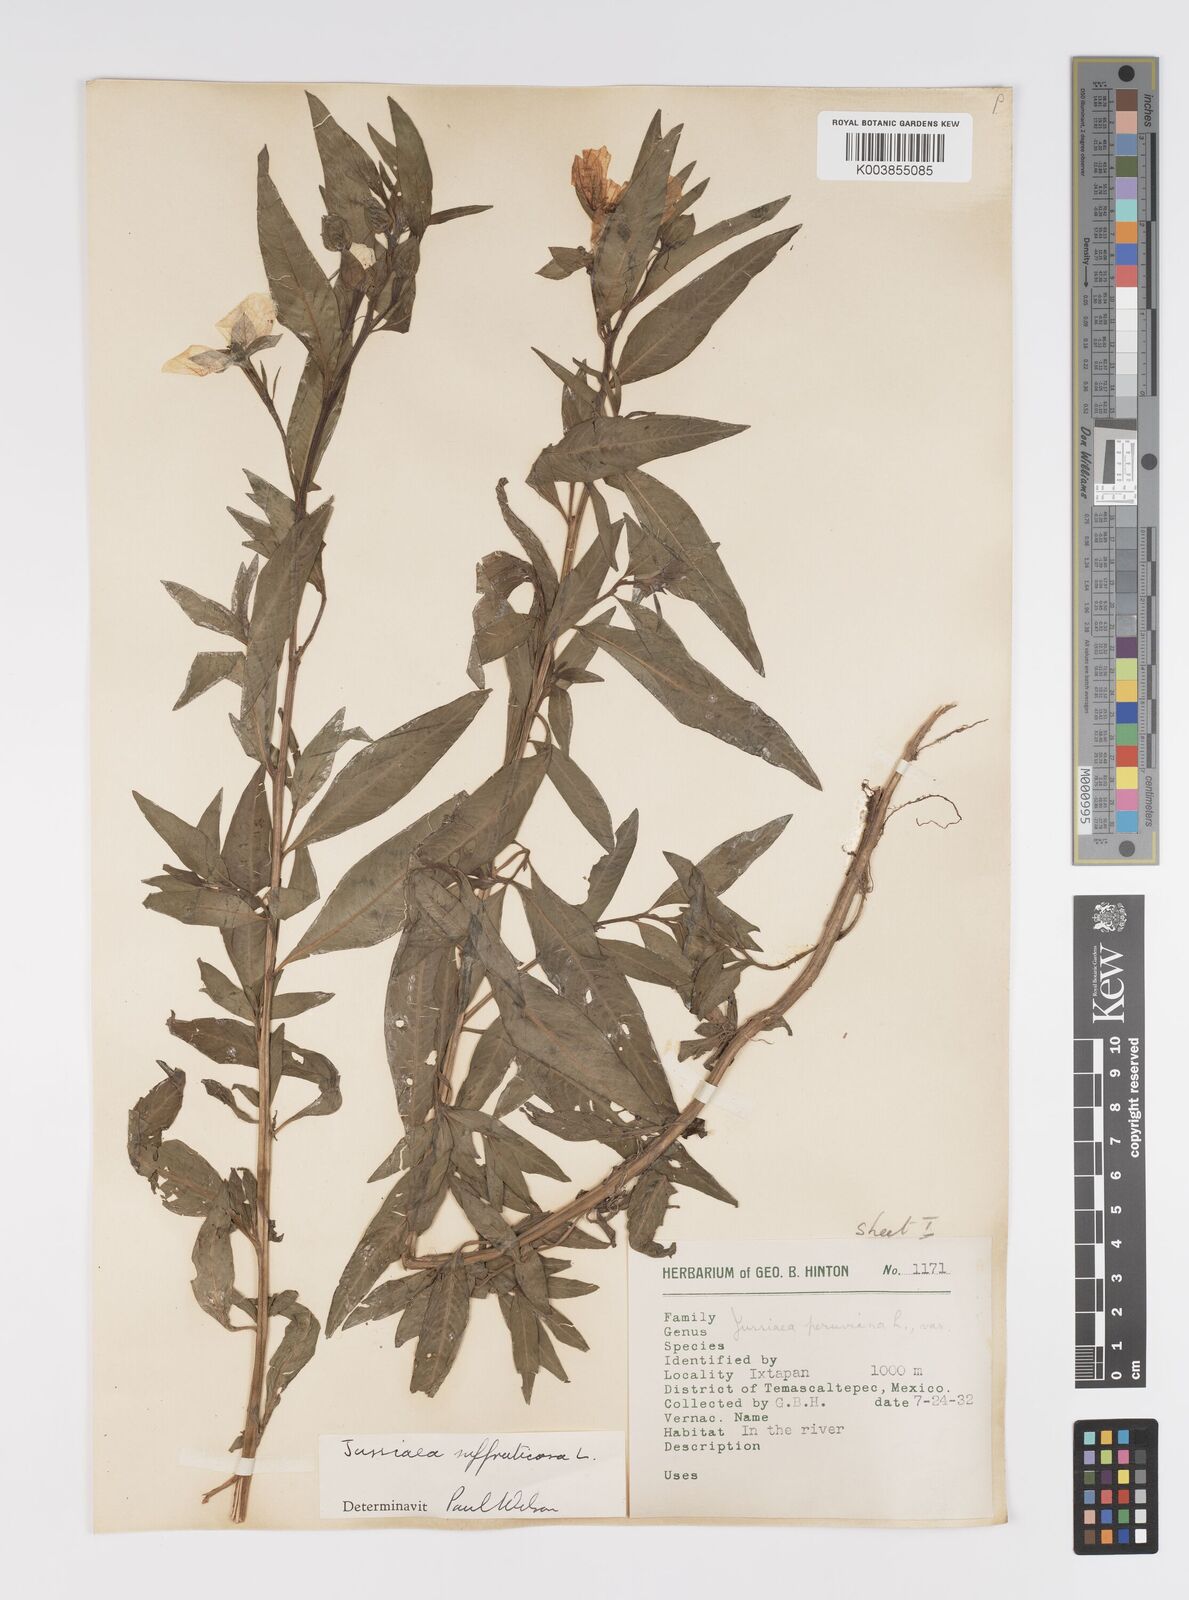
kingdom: Plantae
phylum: Tracheophyta
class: Magnoliopsida
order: Myrtales
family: Onagraceae
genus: Ludwigia
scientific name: Ludwigia octovalvis
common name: Water-primrose
